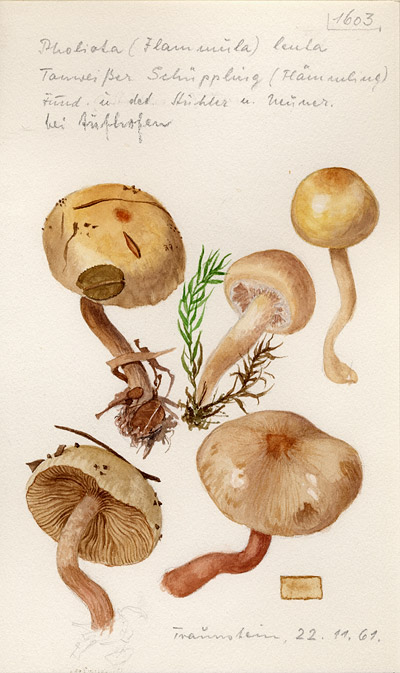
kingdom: Fungi
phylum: Basidiomycota
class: Agaricomycetes
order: Agaricales
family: Strophariaceae
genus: Pholiota
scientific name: Pholiota lenta
